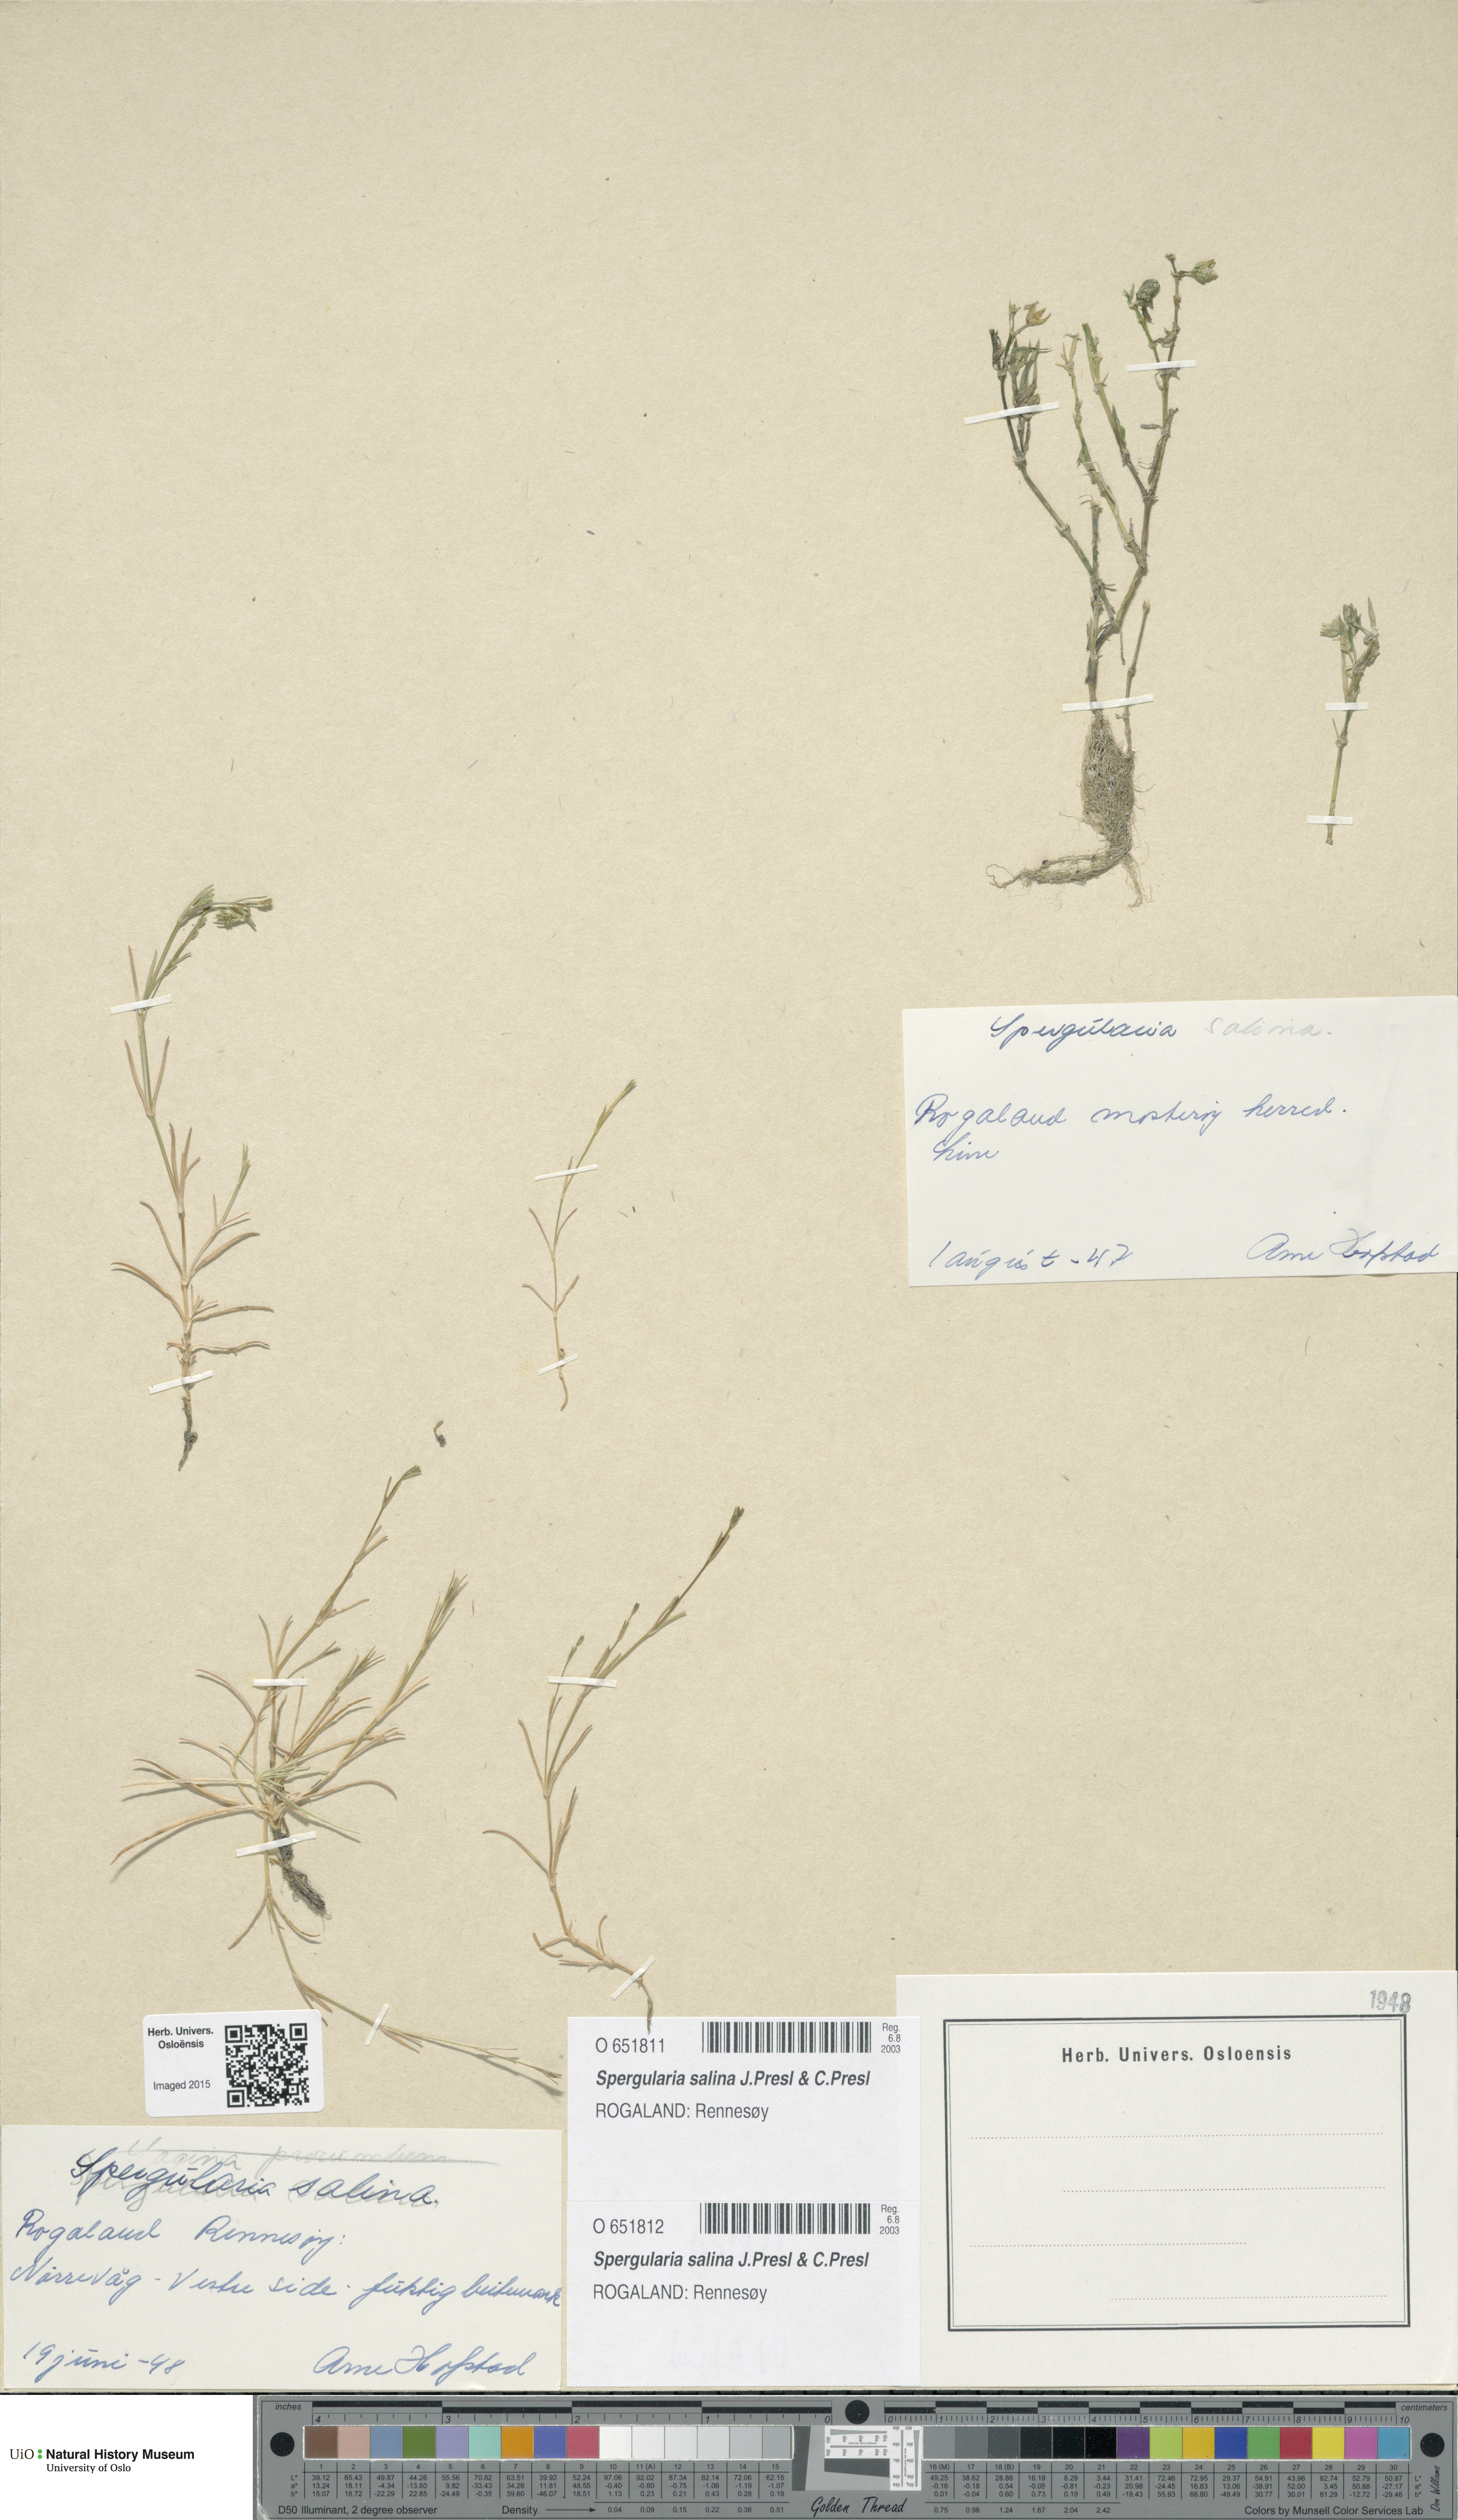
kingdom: Plantae
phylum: Tracheophyta
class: Magnoliopsida
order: Caryophyllales
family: Caryophyllaceae
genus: Spergularia
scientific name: Spergularia marina
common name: Lesser sea-spurrey
